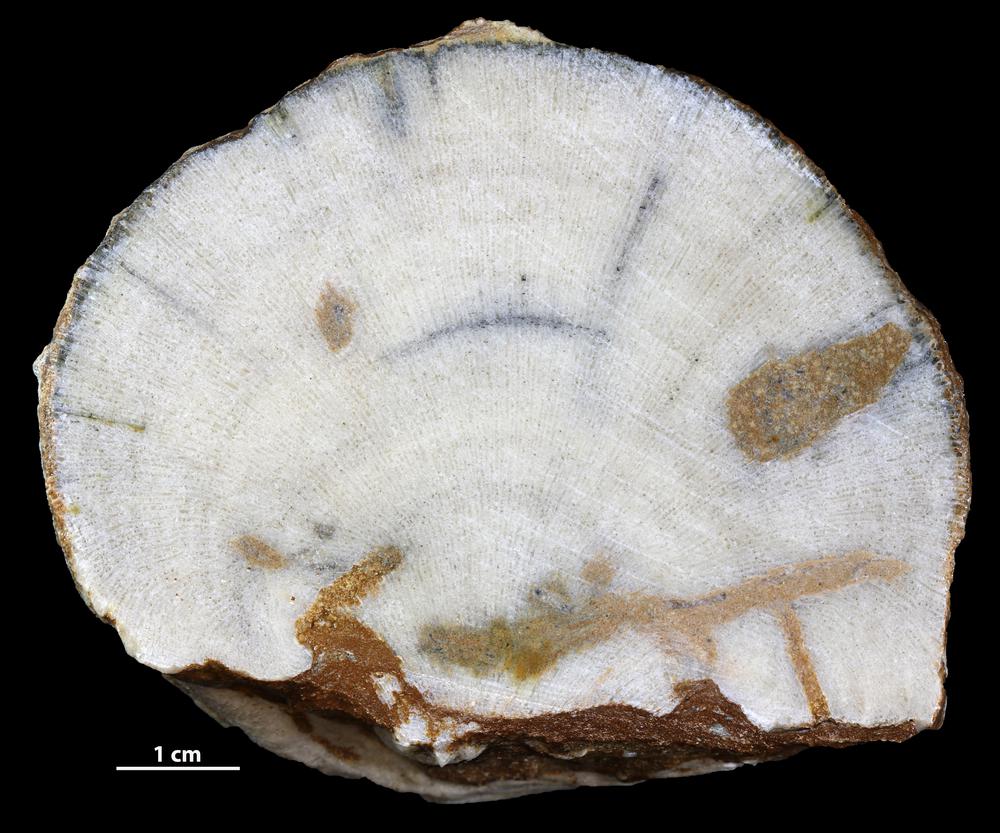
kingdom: Animalia
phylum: Bryozoa
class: Stenolaemata
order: Trepostomatida
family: Diplotrypidae
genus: Diplotrypa
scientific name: Diplotrypa
